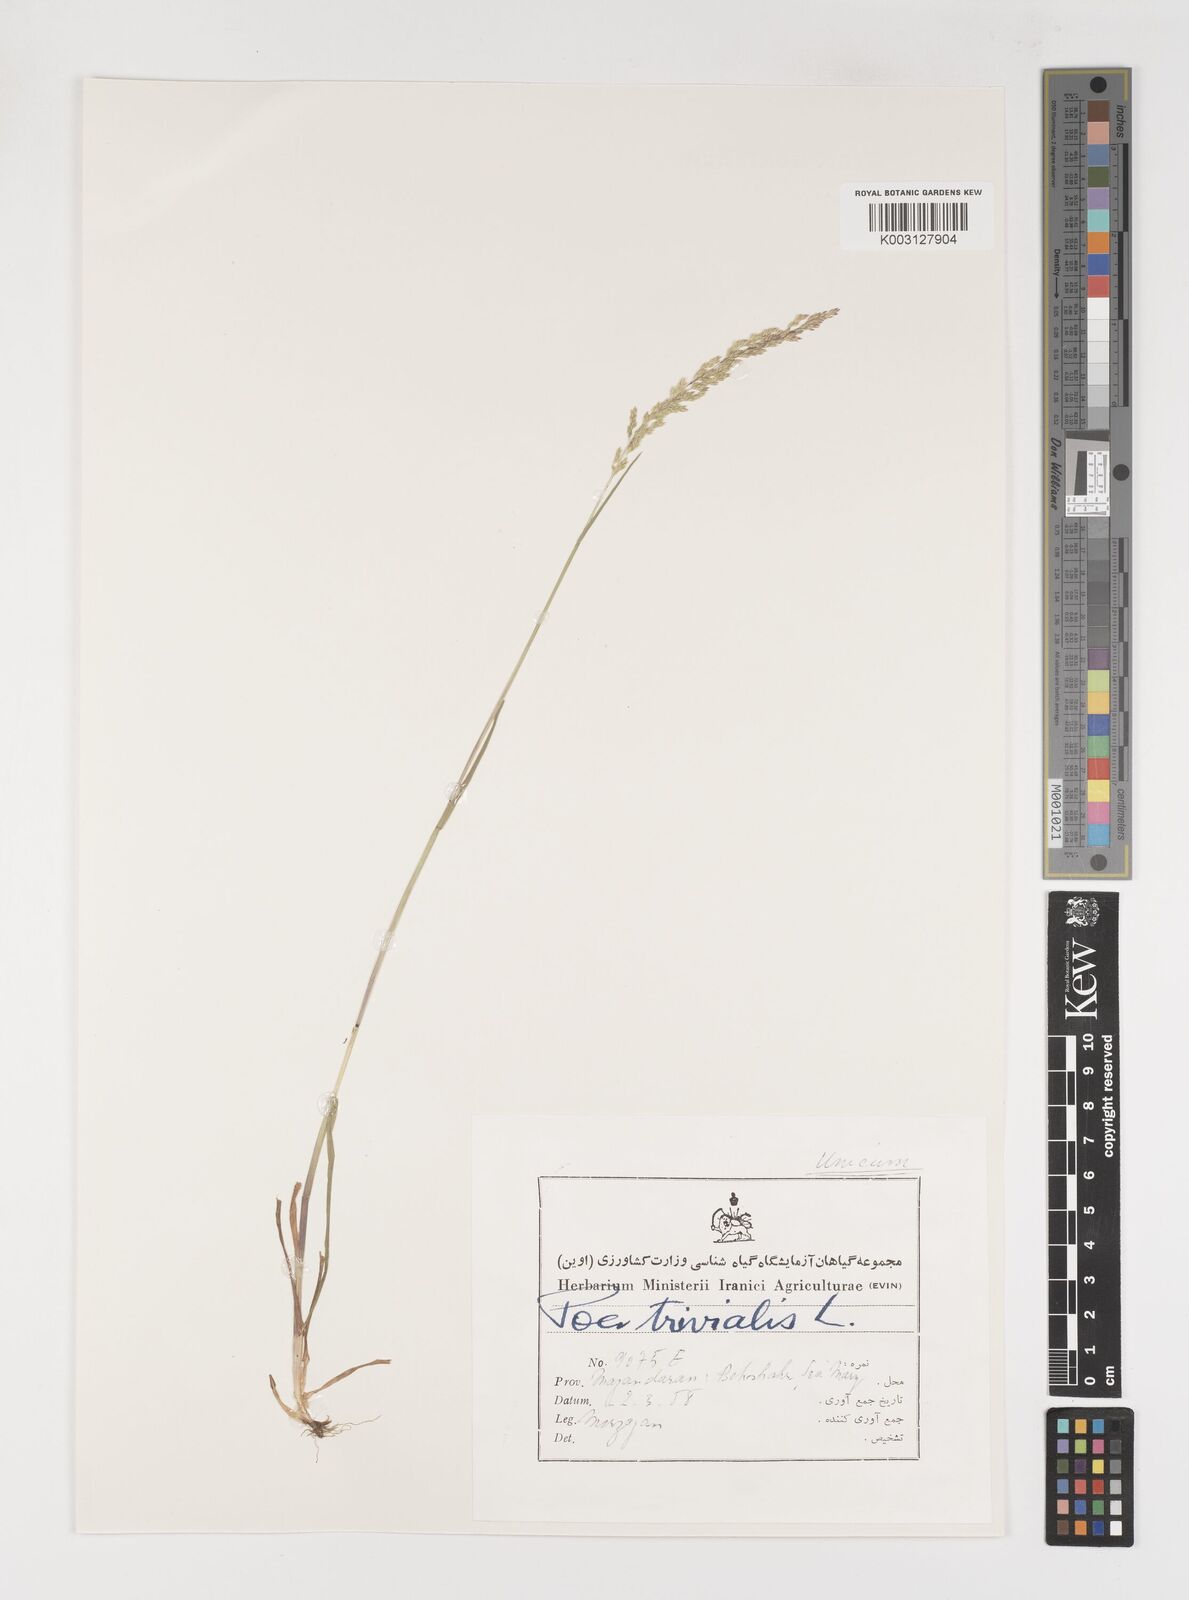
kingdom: Plantae
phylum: Tracheophyta
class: Liliopsida
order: Poales
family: Poaceae
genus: Poa
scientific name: Poa trivialis
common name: Rough bluegrass
